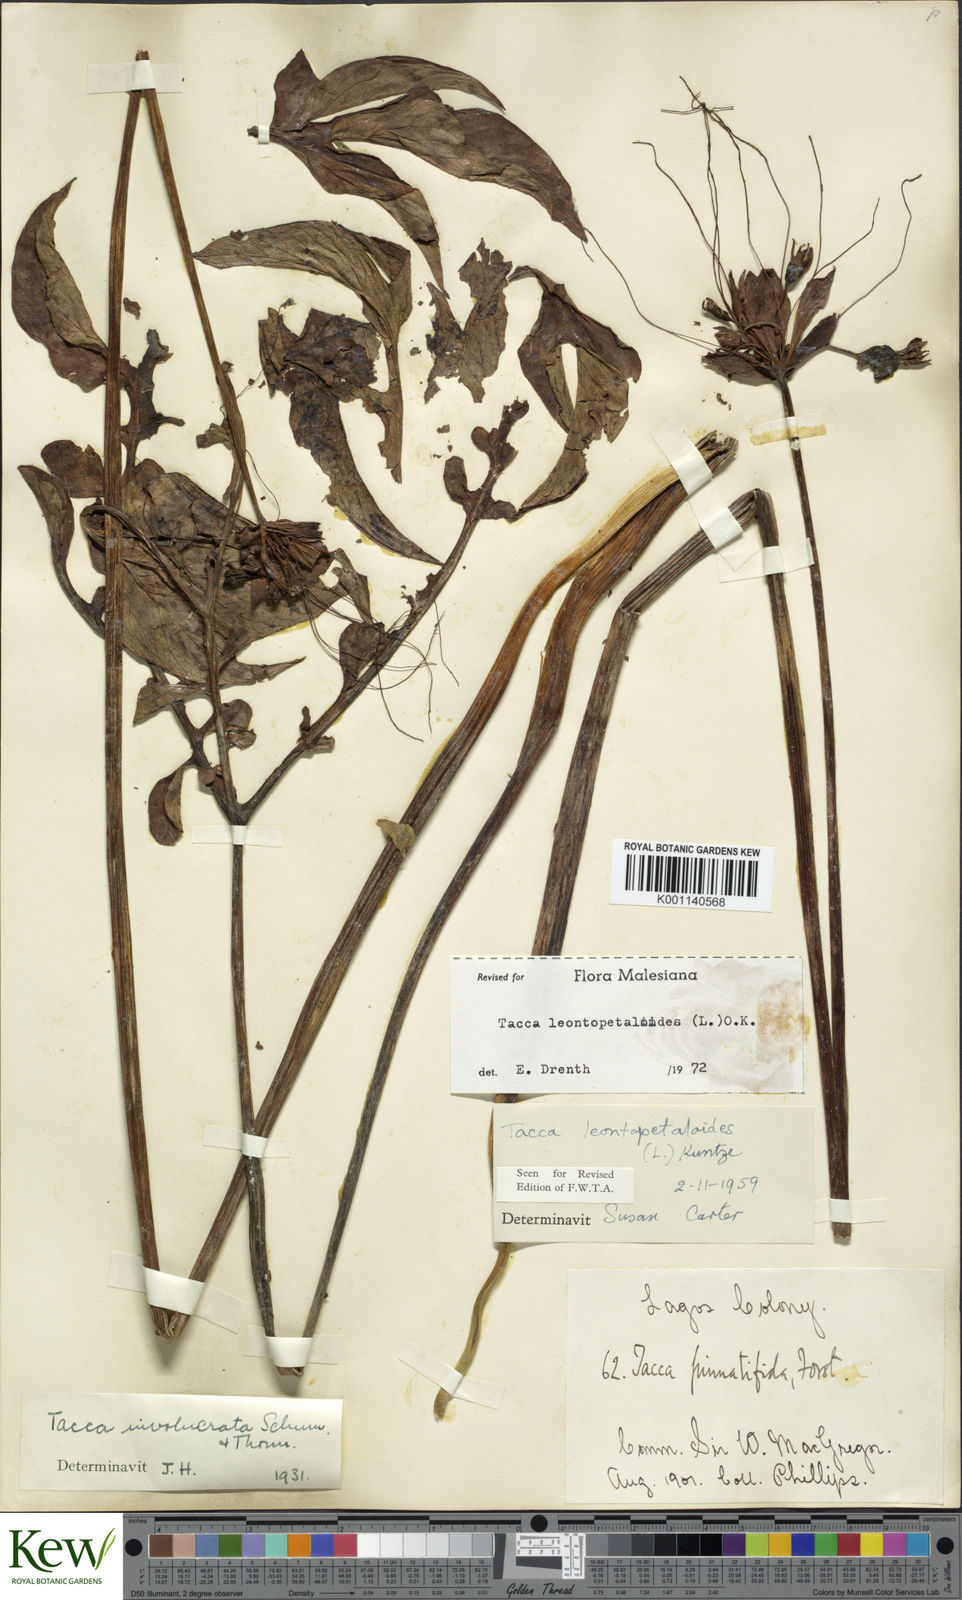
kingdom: Plantae
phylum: Tracheophyta
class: Liliopsida
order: Dioscoreales
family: Dioscoreaceae
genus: Tacca
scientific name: Tacca leontopetaloides
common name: Arrowroot
